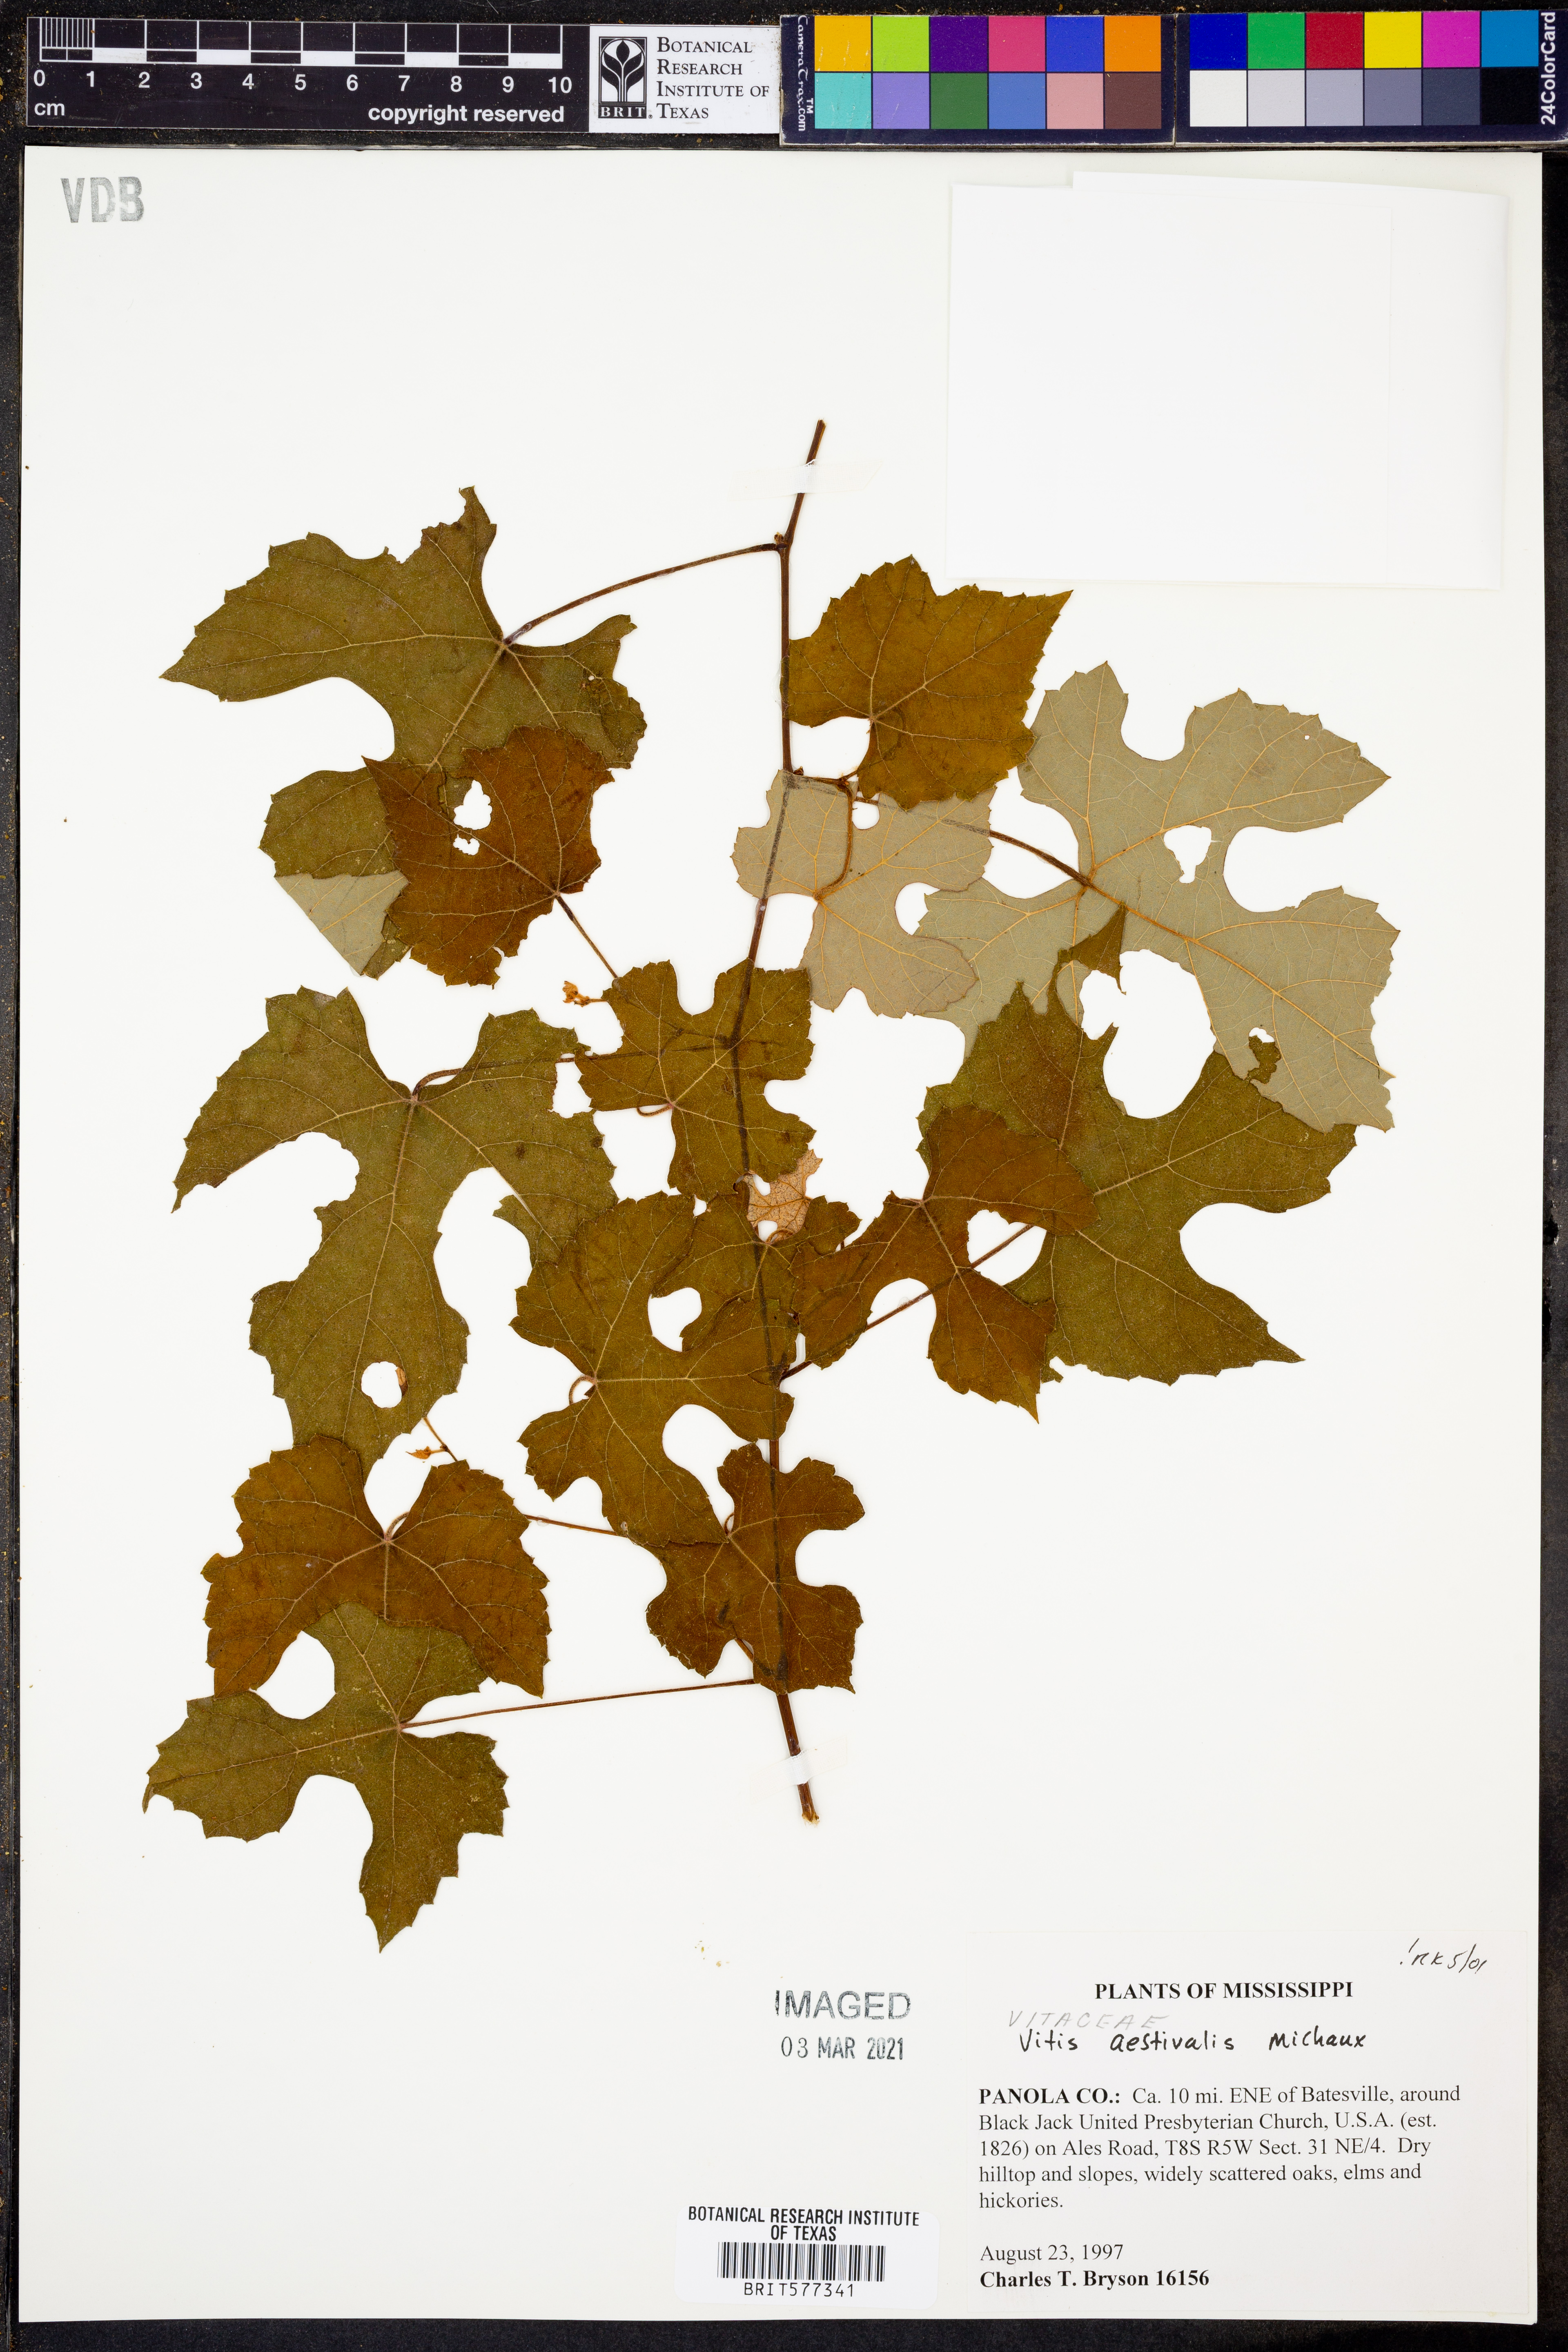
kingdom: Plantae
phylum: Tracheophyta
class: Magnoliopsida
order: Vitales
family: Vitaceae
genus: Vitis
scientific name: Vitis aestivalis
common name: Pigeon grape
